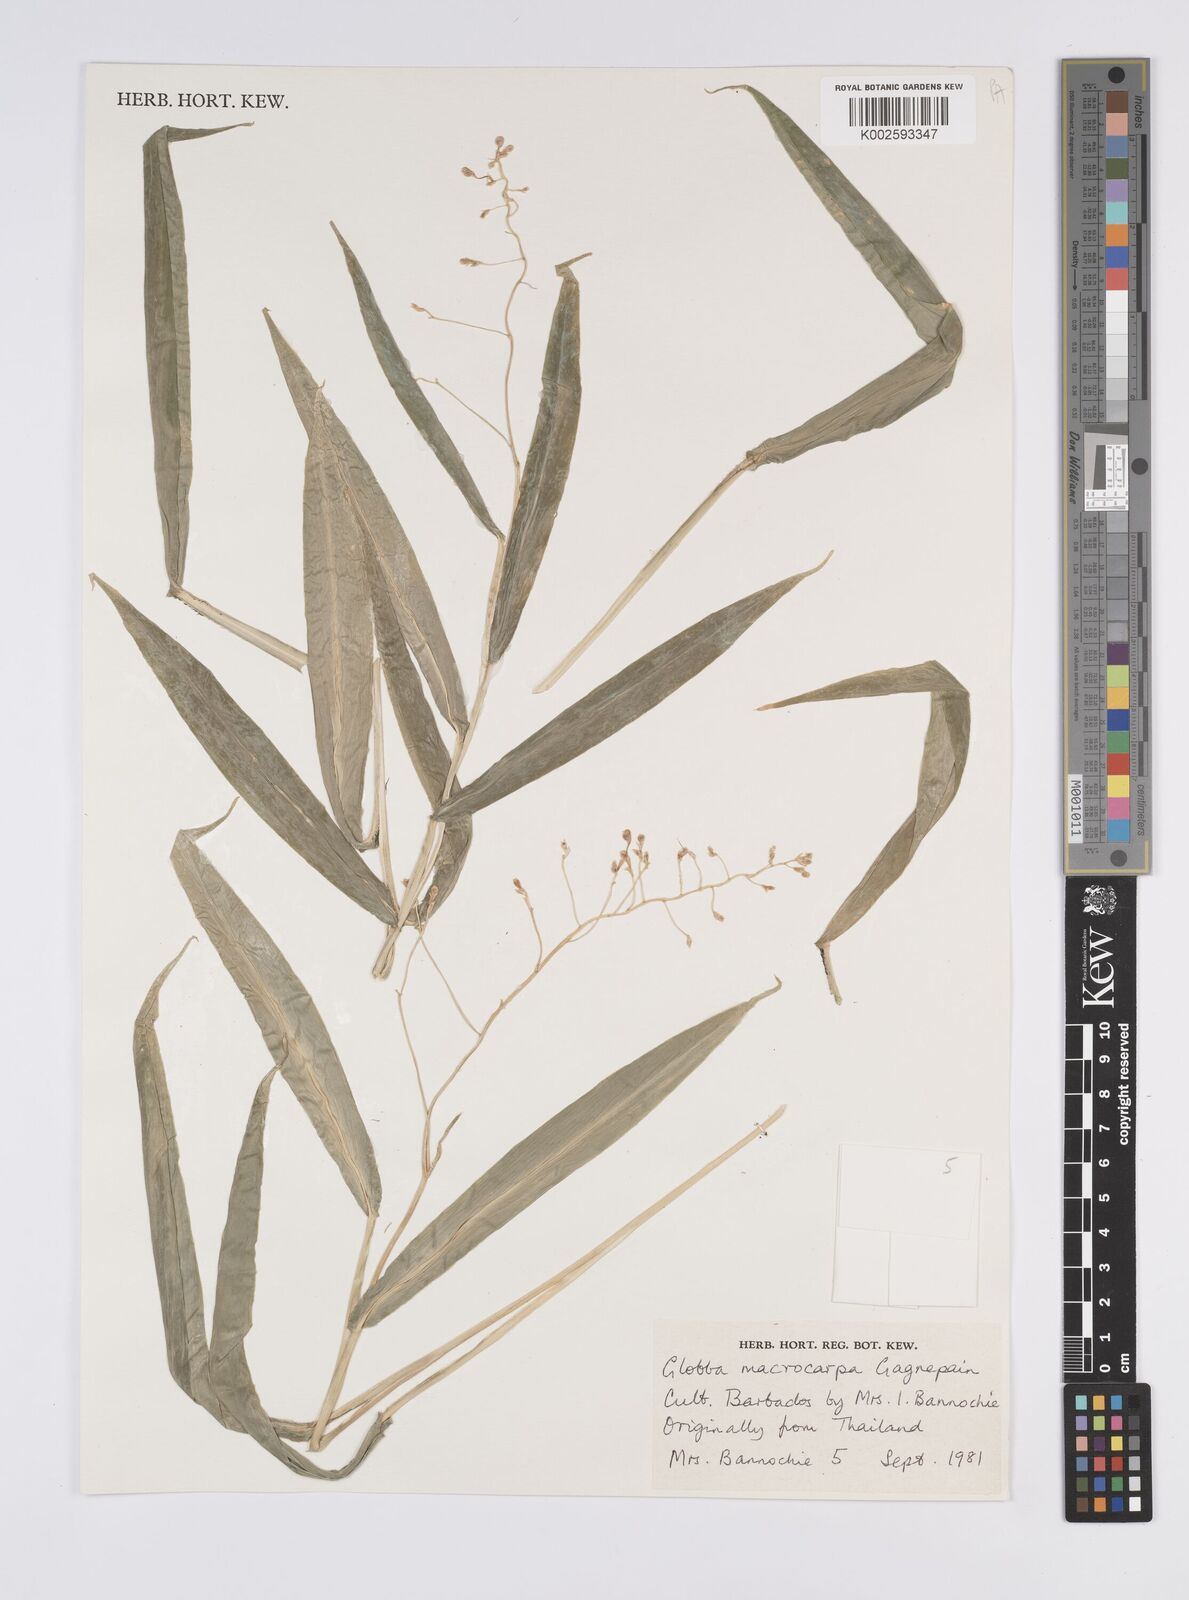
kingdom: Plantae
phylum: Tracheophyta
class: Liliopsida
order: Zingiberales
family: Zingiberaceae
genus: Globba
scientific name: Globba macrocarpa
